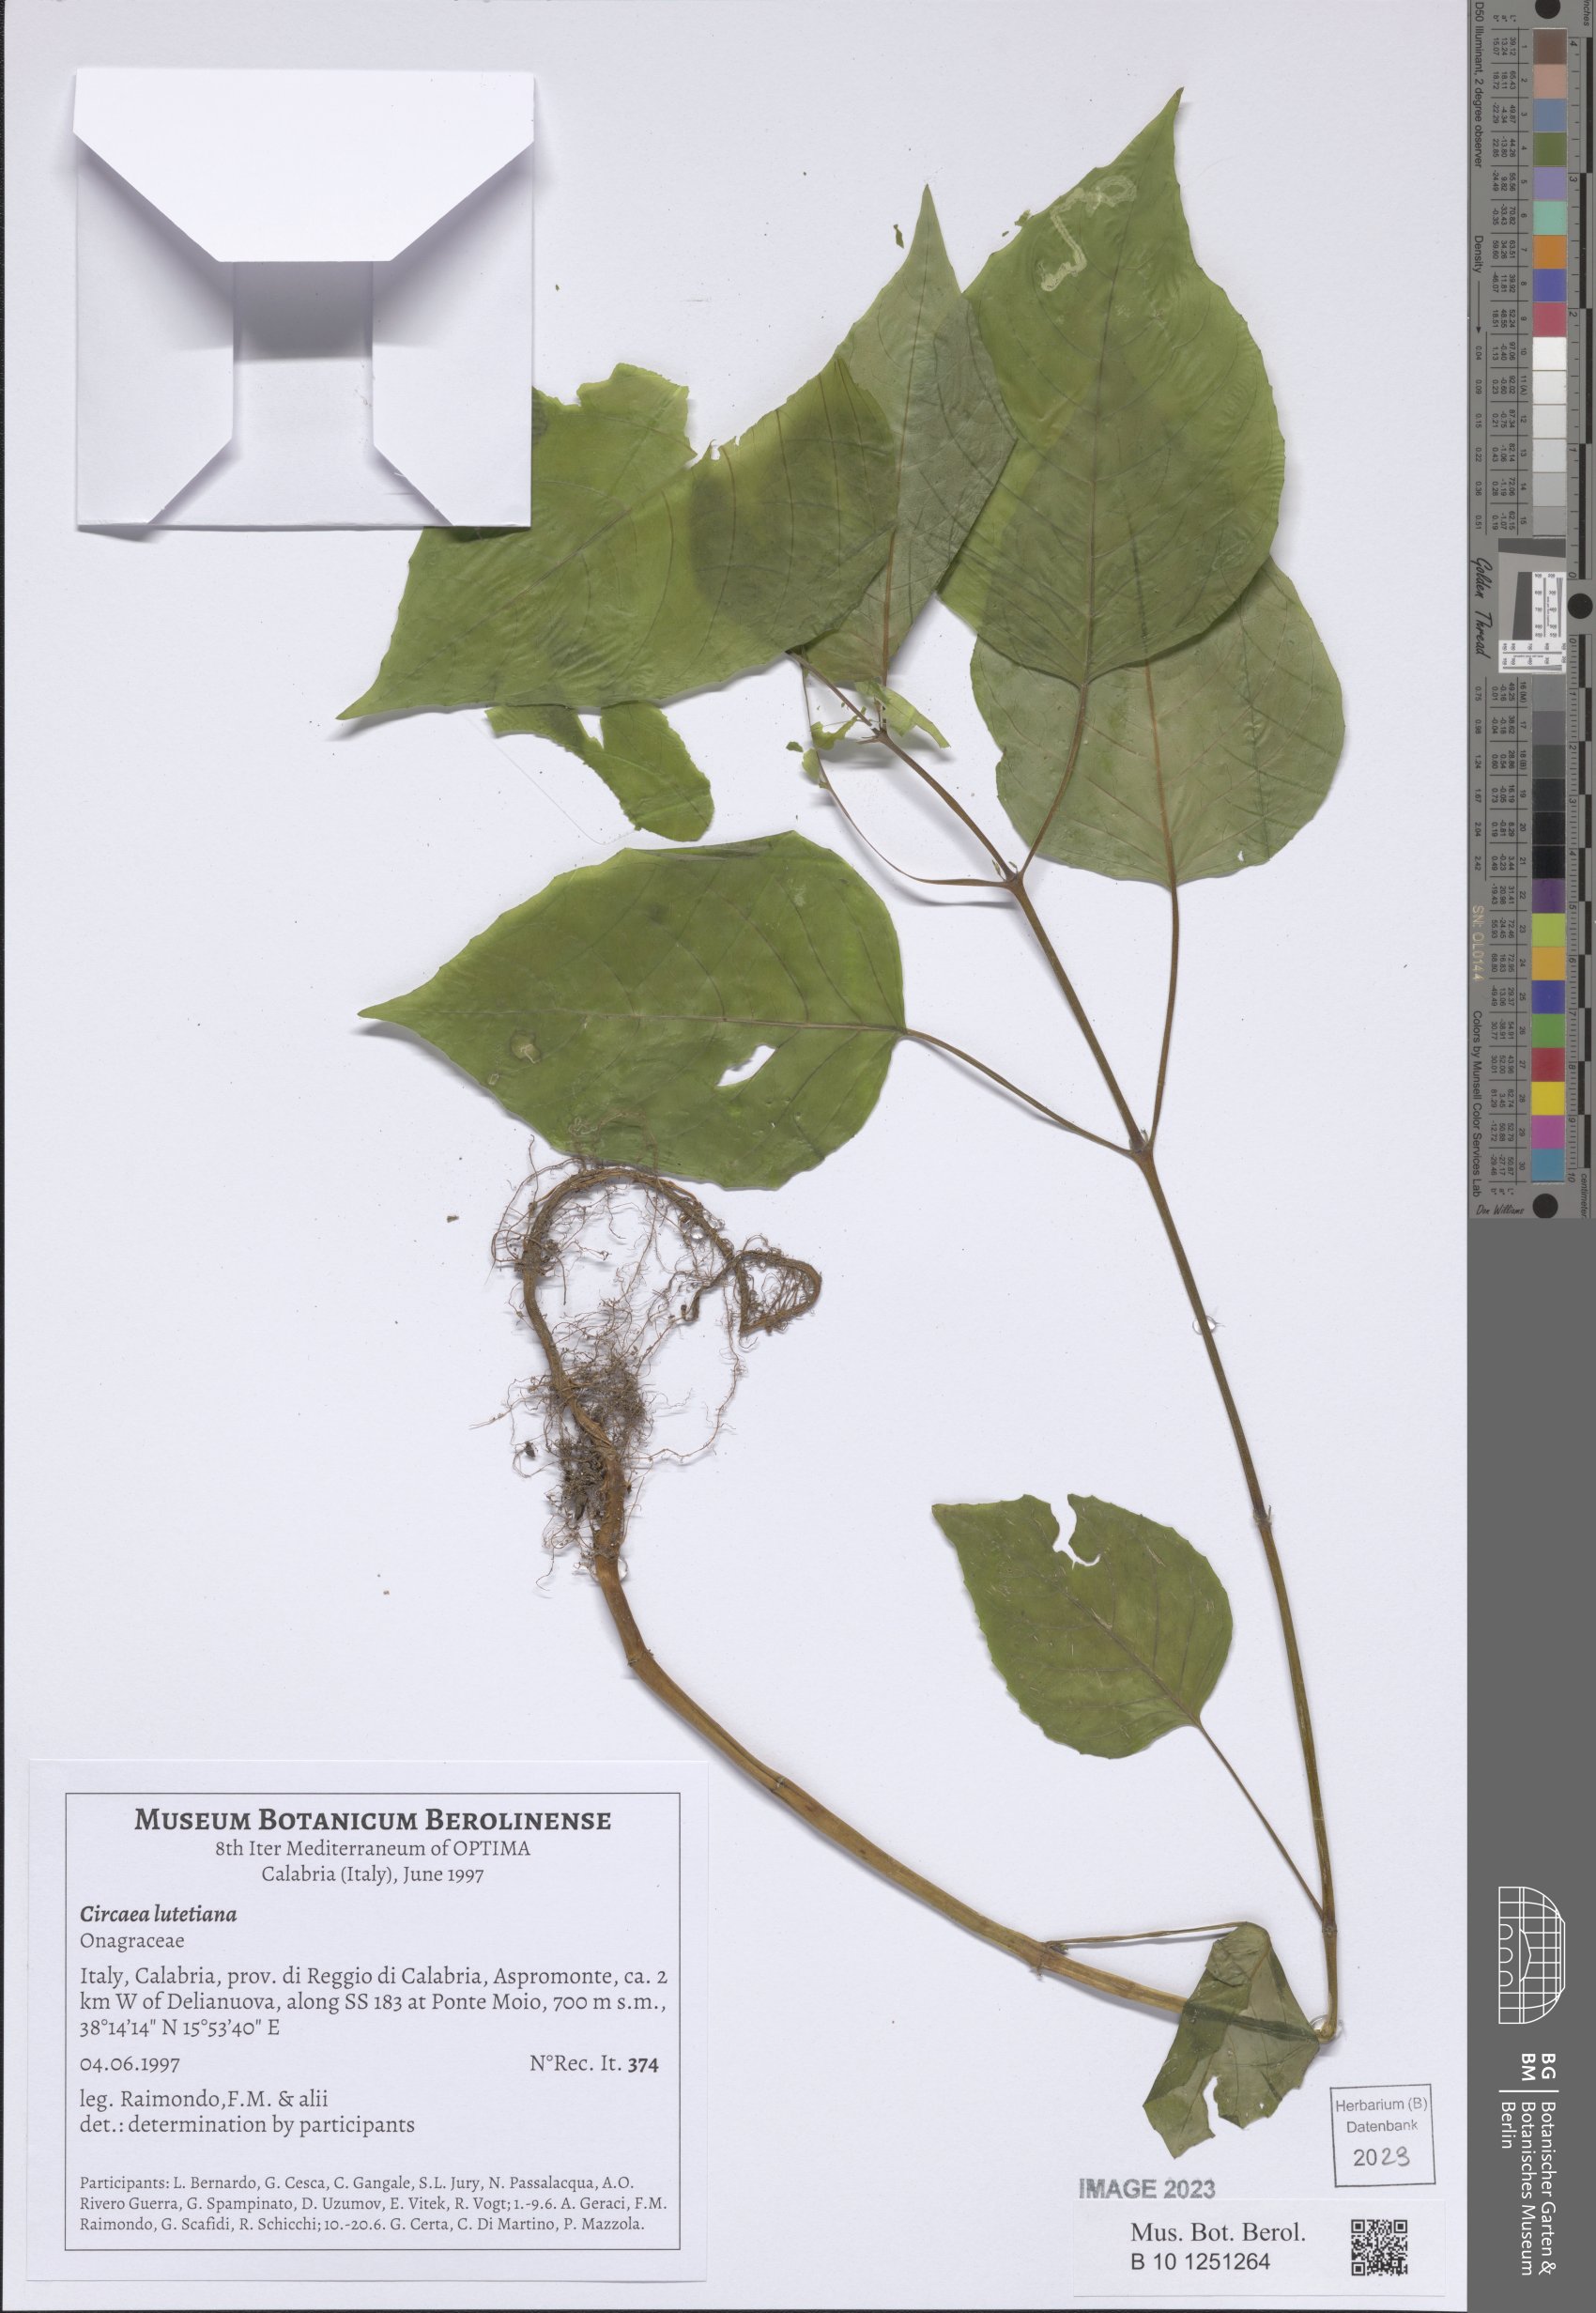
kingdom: Plantae
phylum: Tracheophyta
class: Magnoliopsida
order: Myrtales
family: Onagraceae
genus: Circaea
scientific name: Circaea lutetiana
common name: Enchanter's-nightshade
